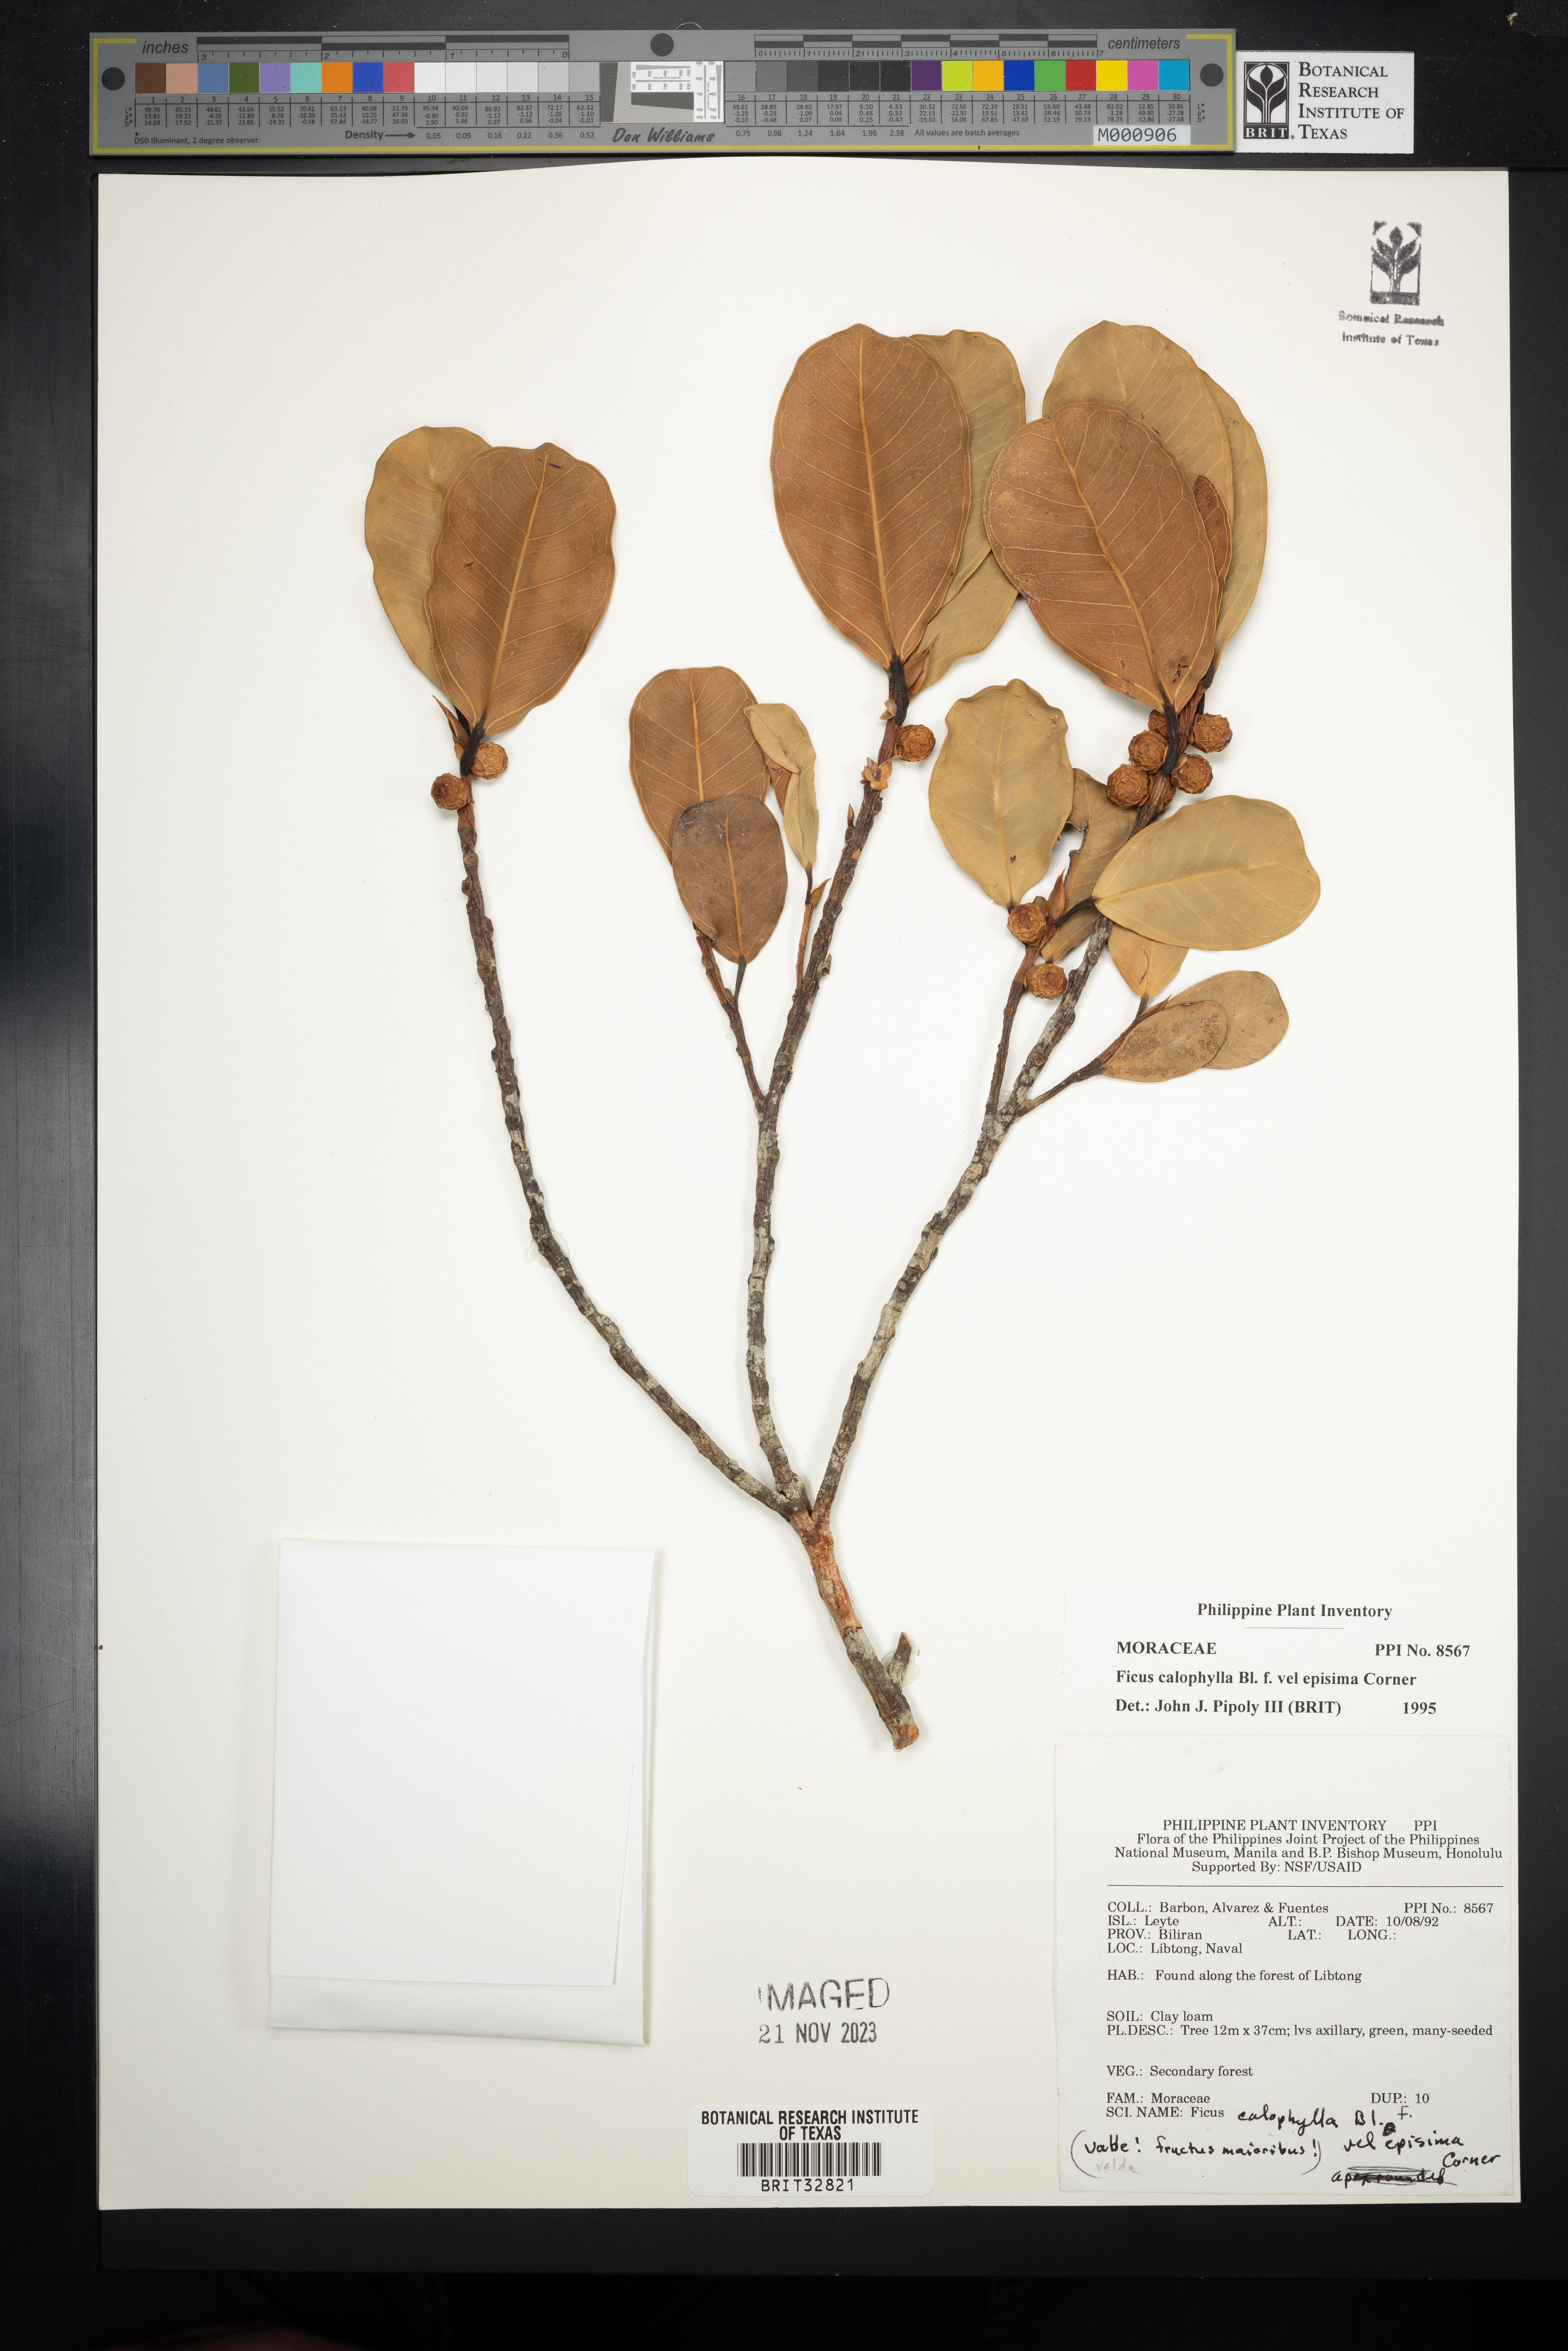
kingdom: Plantae
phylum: Tracheophyta
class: Magnoliopsida
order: Rosales
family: Moraceae
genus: Ficus
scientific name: Ficus callophylla
